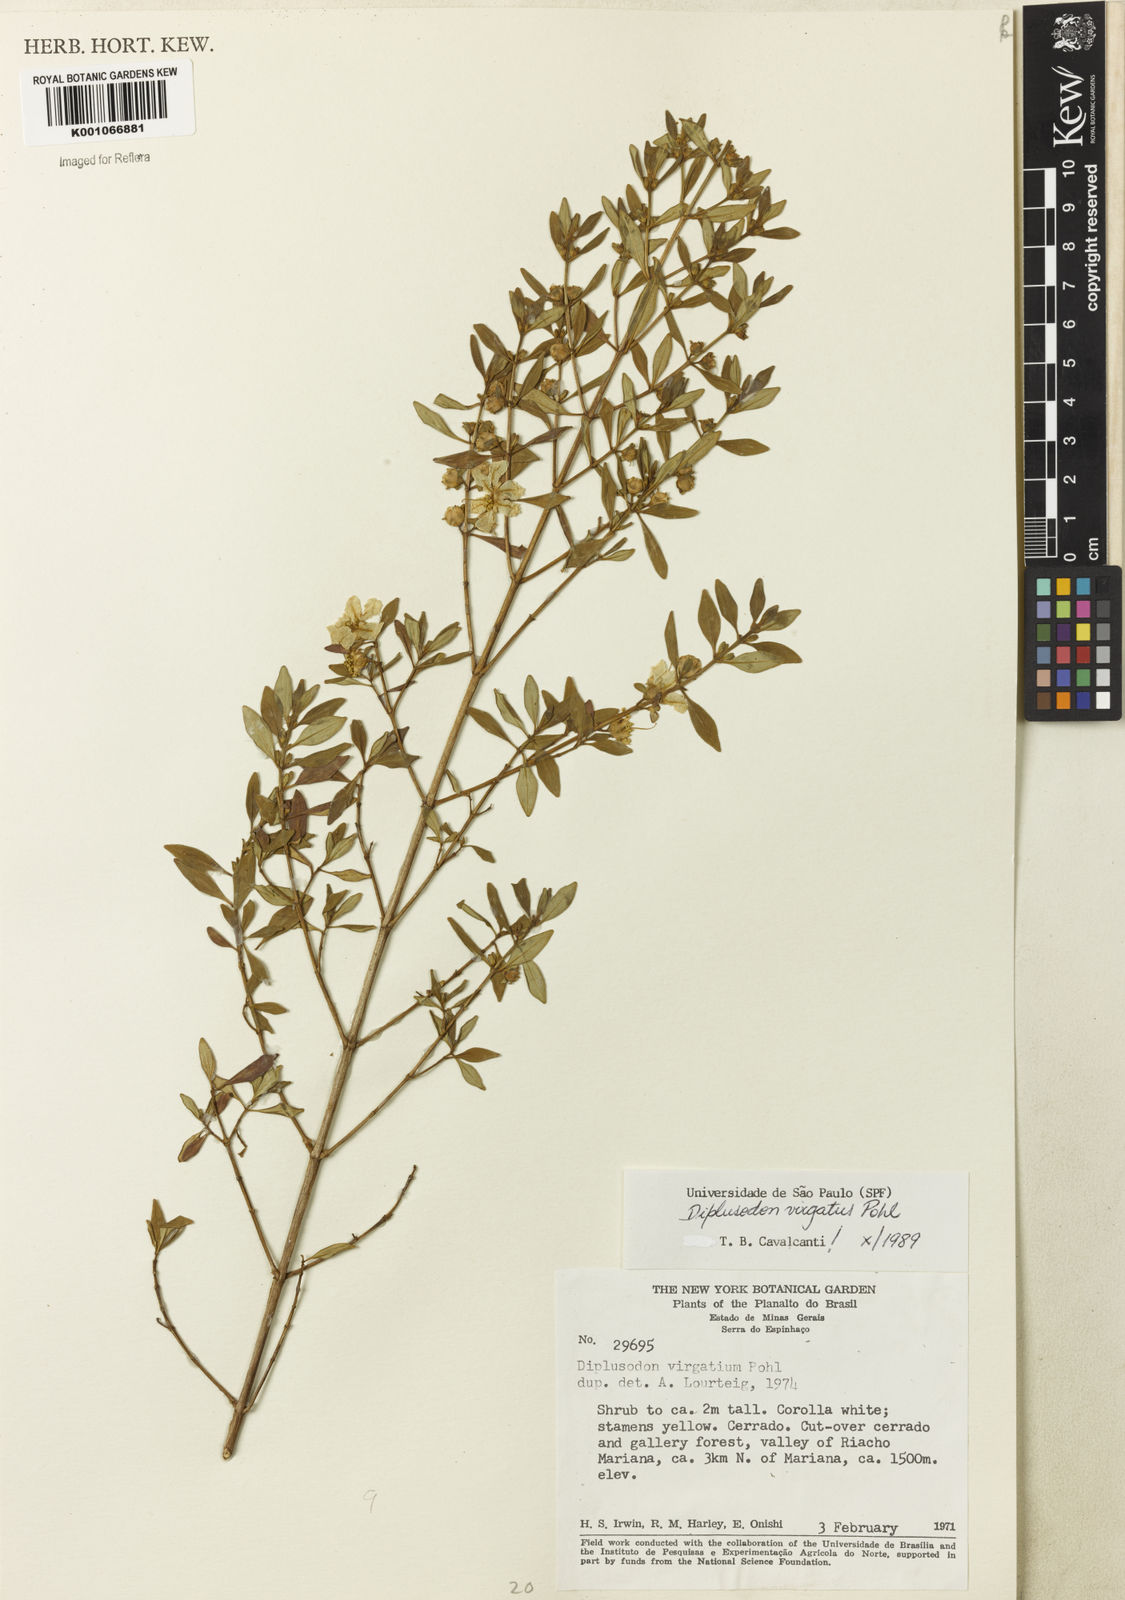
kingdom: Plantae
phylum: Tracheophyta
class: Magnoliopsida
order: Myrtales
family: Lythraceae
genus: Diplusodon
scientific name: Diplusodon virgatus
